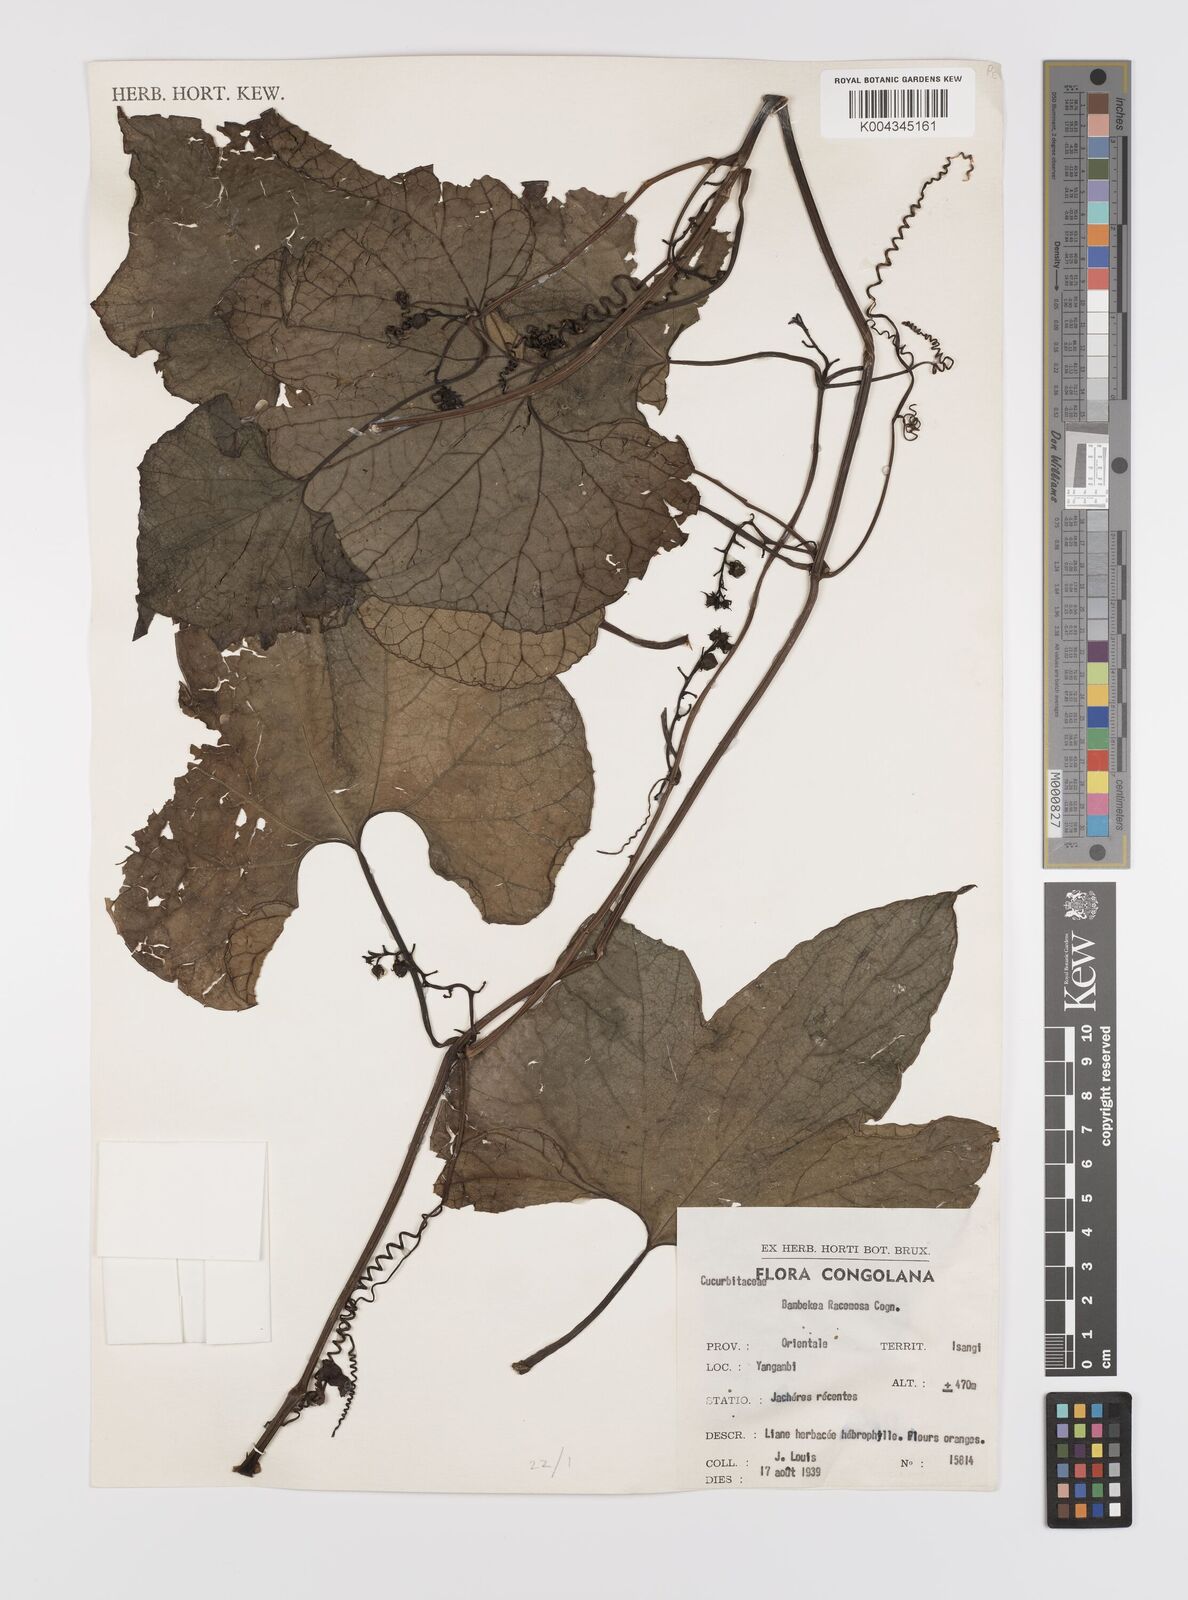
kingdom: Plantae
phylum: Tracheophyta
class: Magnoliopsida
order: Cucurbitales
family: Cucurbitaceae
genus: Bambekea
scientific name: Bambekea racemosa
